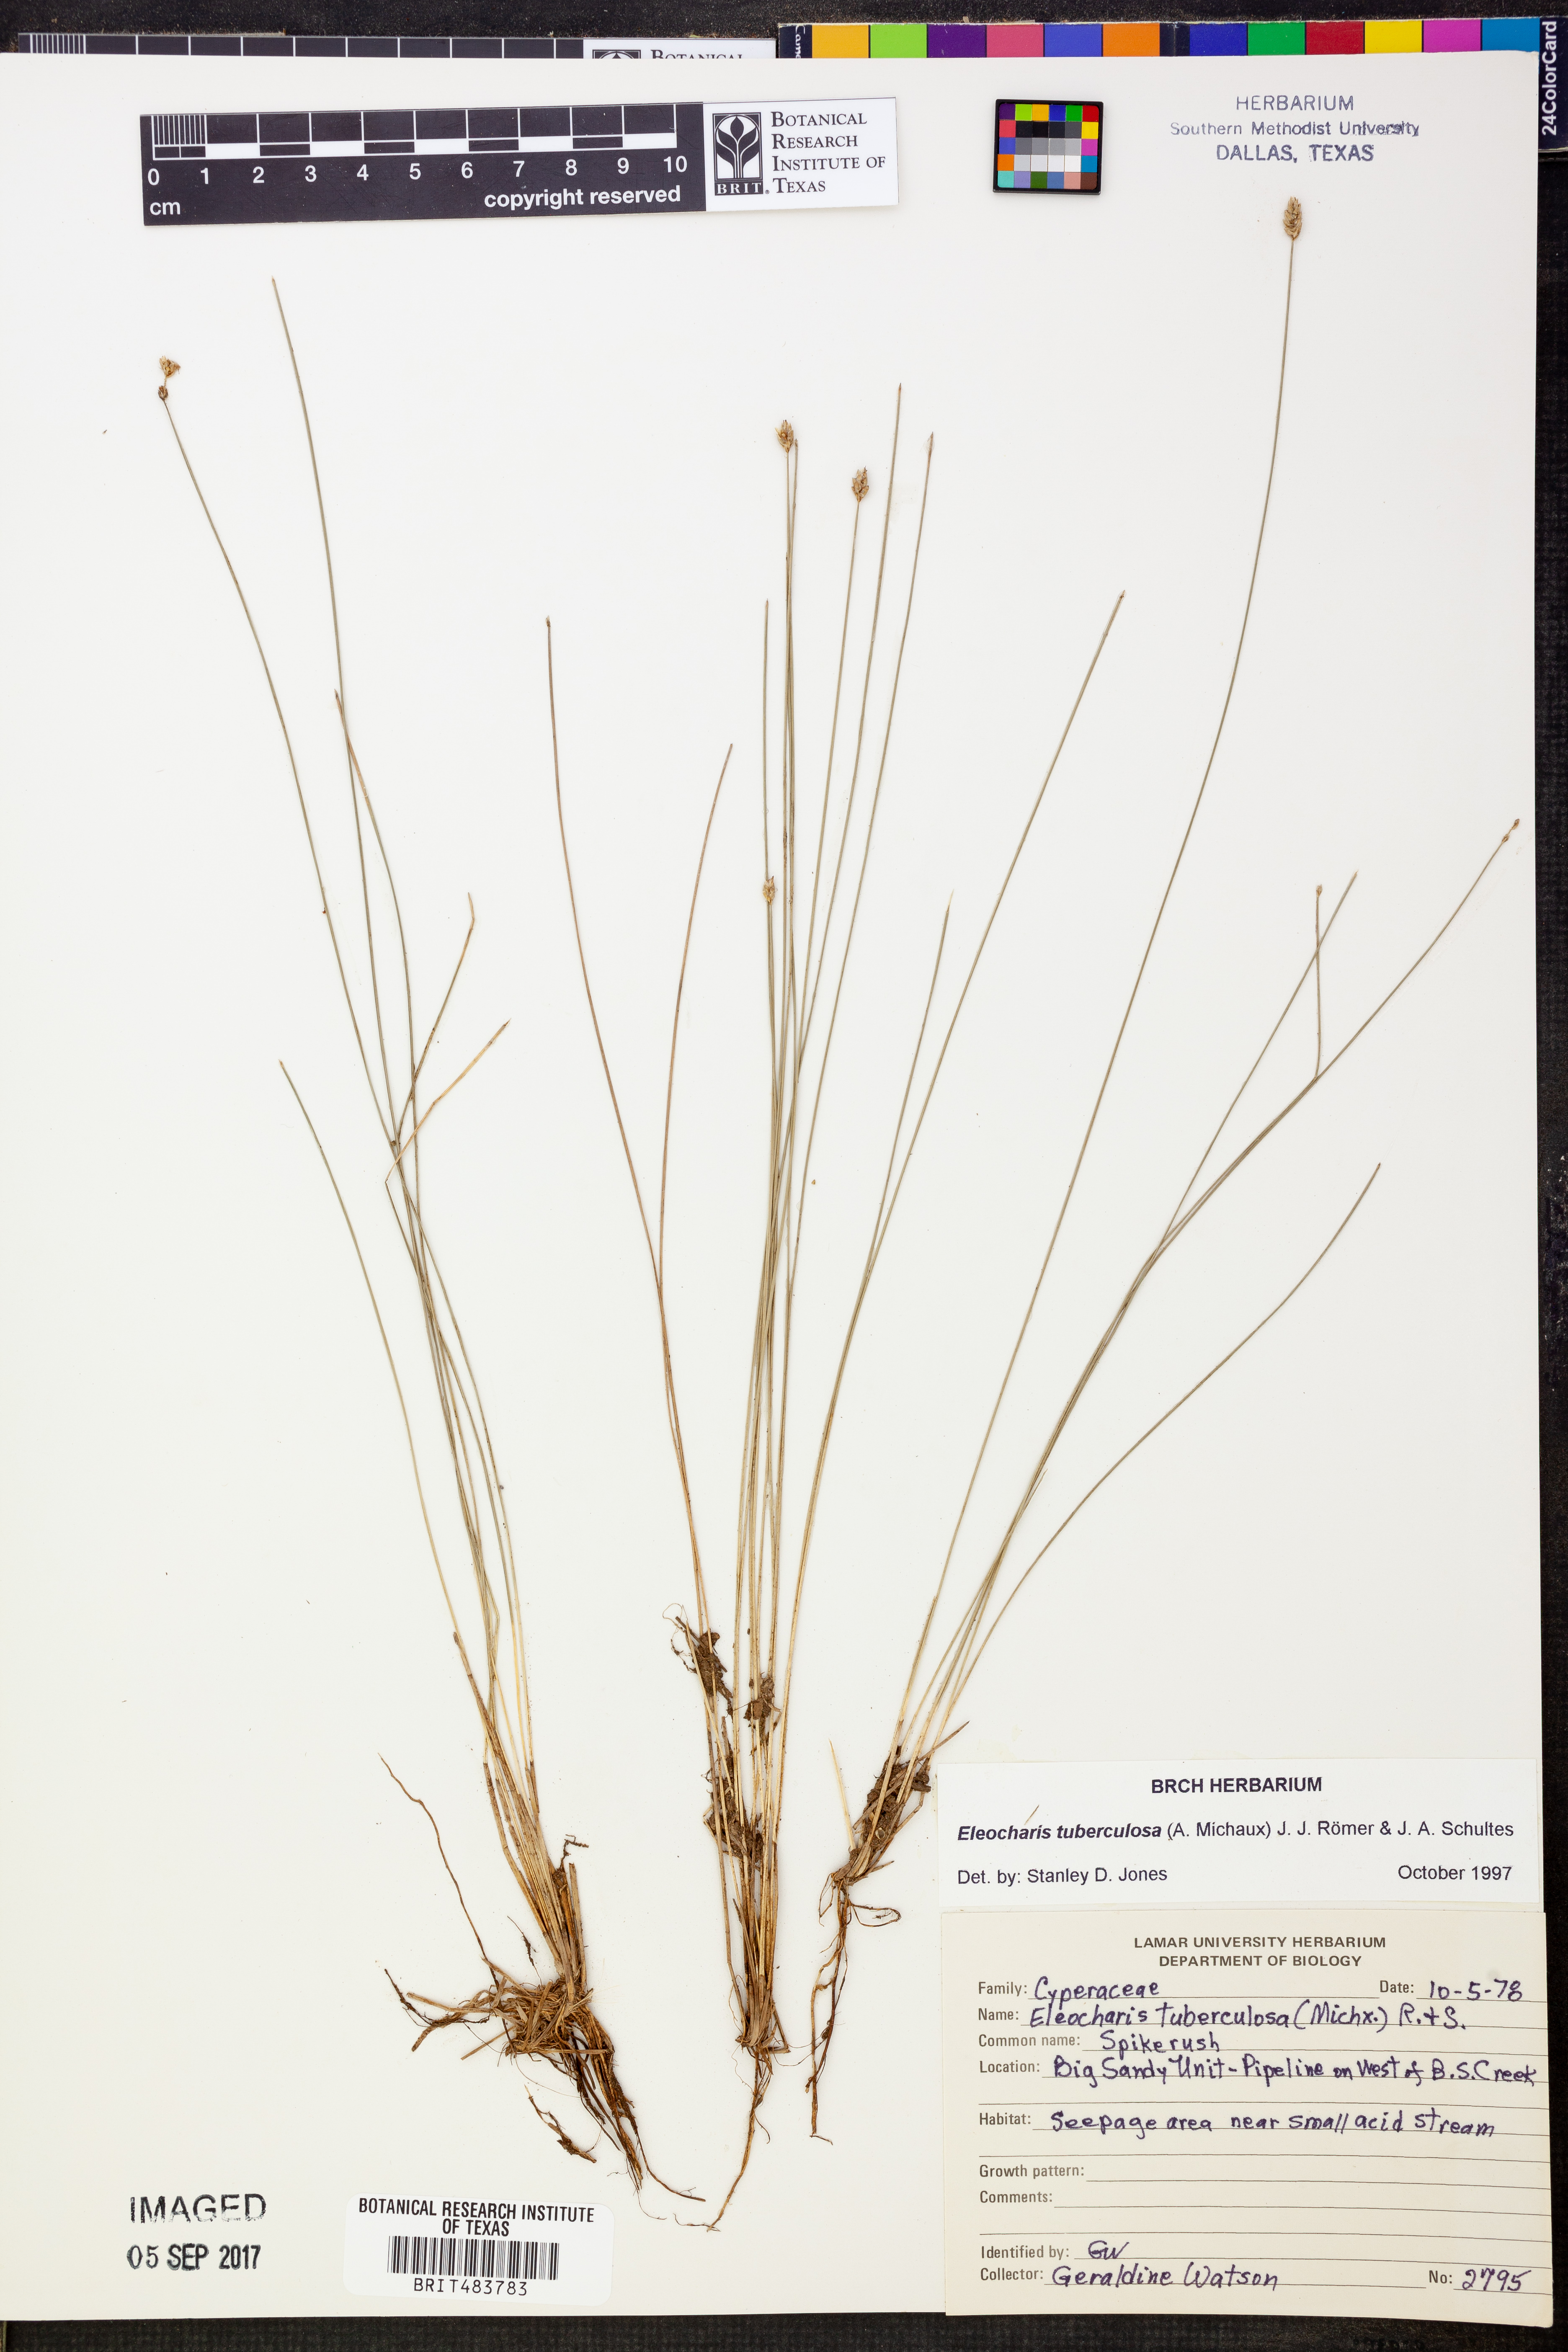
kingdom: Plantae
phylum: Tracheophyta
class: Liliopsida
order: Poales
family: Cyperaceae
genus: Eleocharis
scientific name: Eleocharis tuberculosa
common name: Cone-cup spikerush
